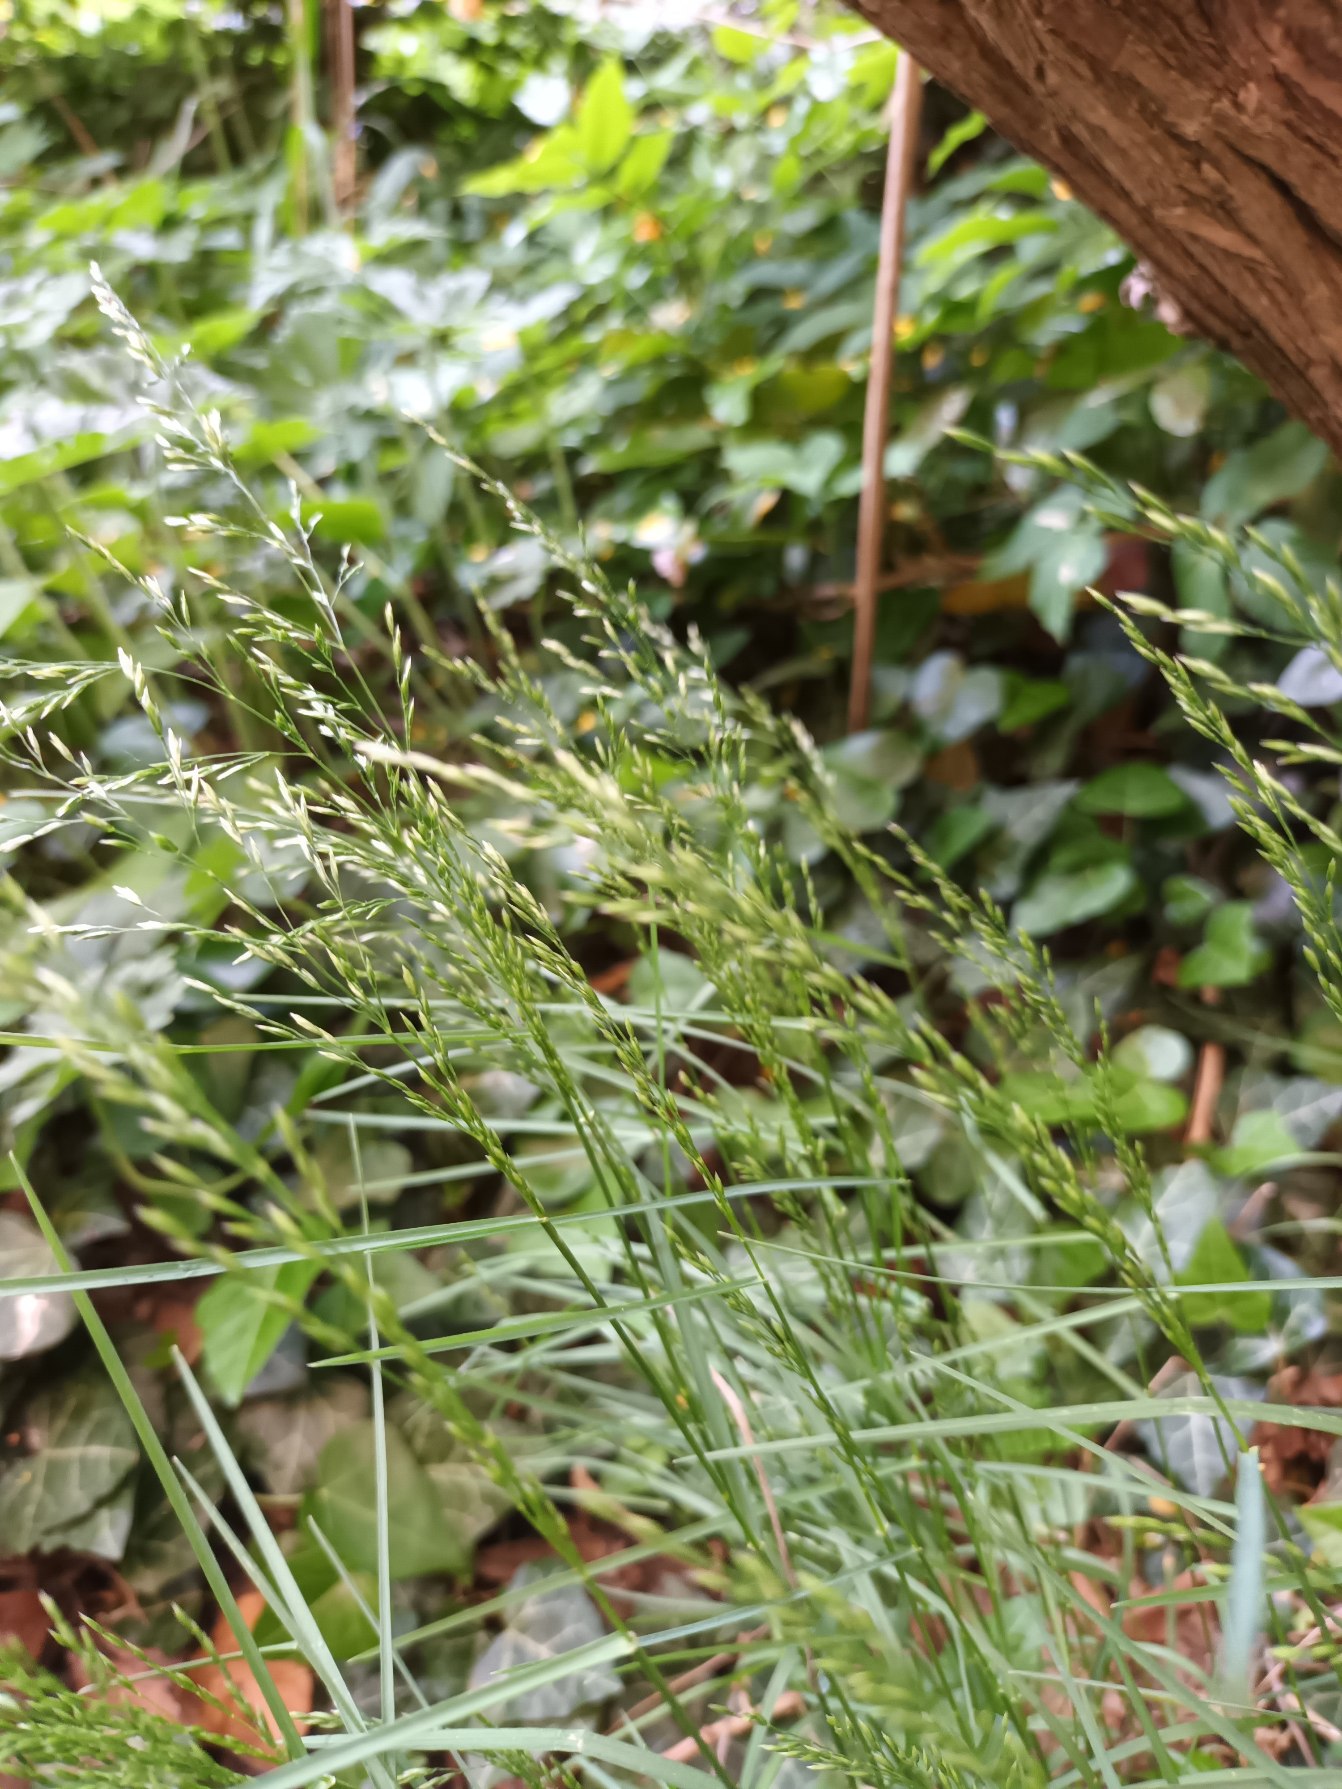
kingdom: Plantae
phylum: Tracheophyta
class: Liliopsida
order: Poales
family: Poaceae
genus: Poa
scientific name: Poa nemoralis
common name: Lund-rapgræs
